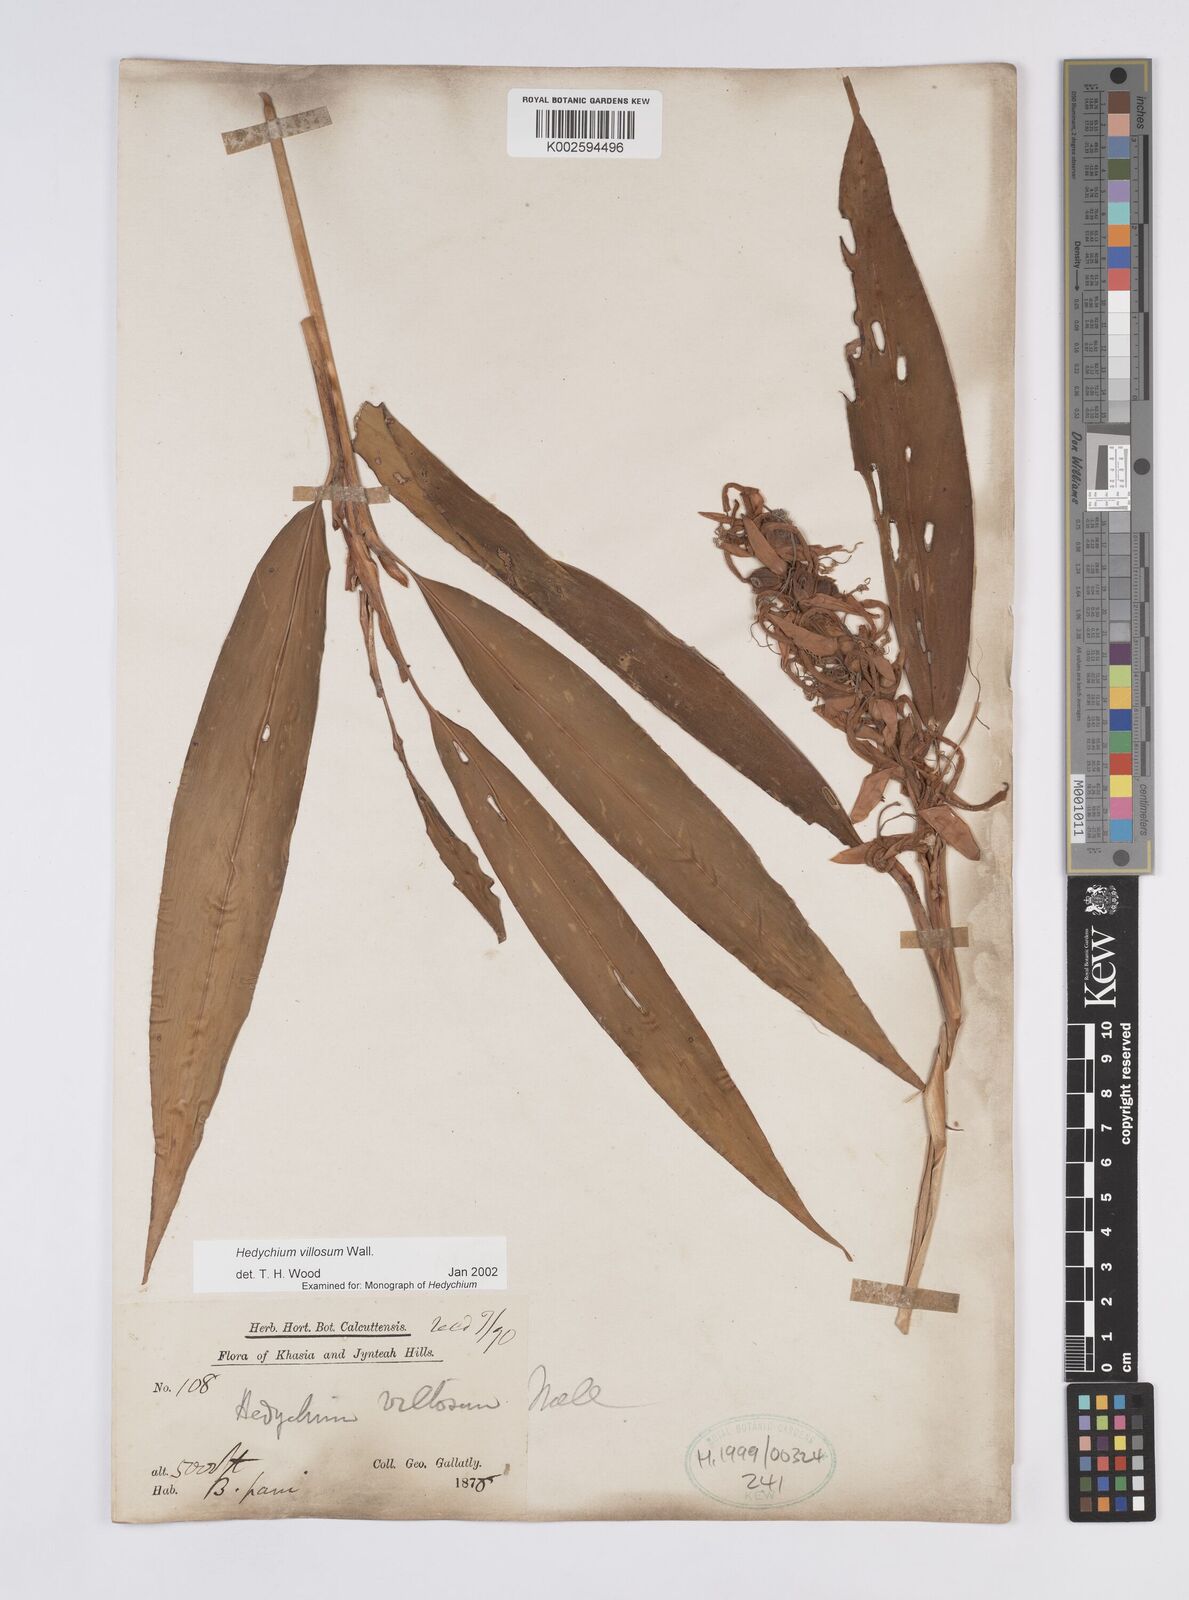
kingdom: Plantae
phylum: Tracheophyta
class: Liliopsida
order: Zingiberales
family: Zingiberaceae
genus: Hedychium
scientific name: Hedychium villosum
